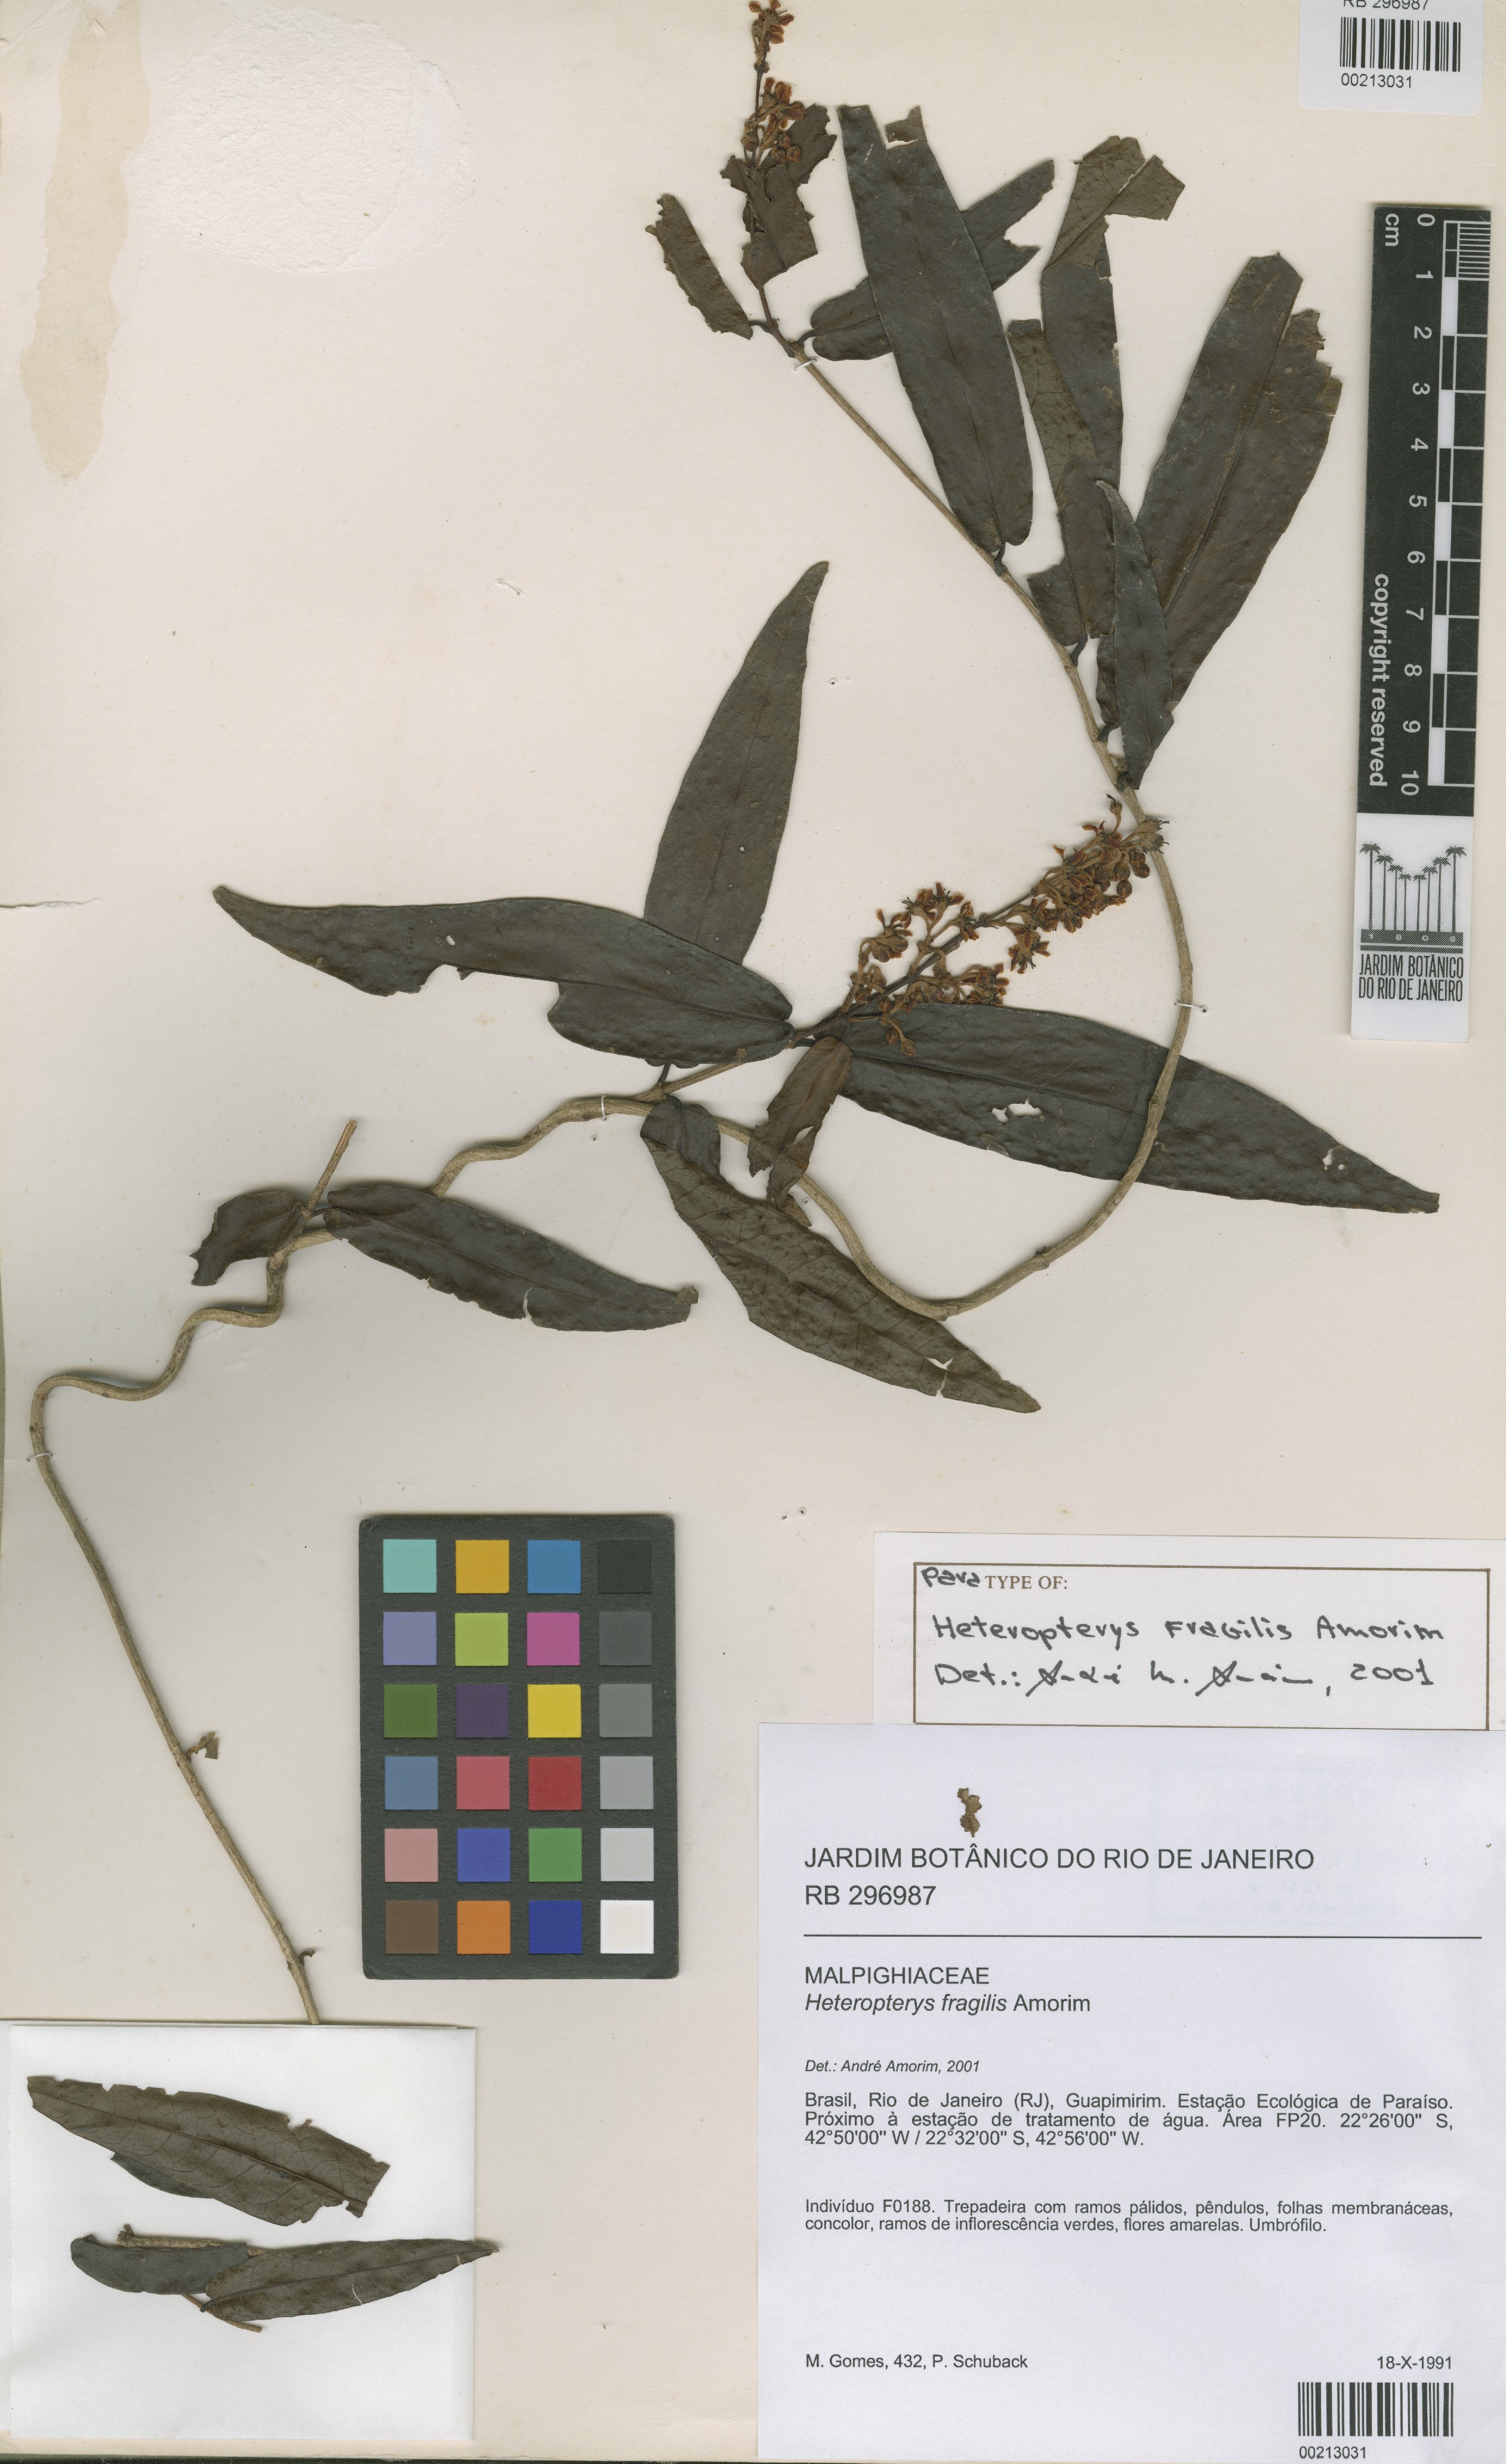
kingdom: Plantae
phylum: Tracheophyta
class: Magnoliopsida
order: Malpighiales
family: Malpighiaceae
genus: Heteropterys
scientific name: Heteropterys fragilis
